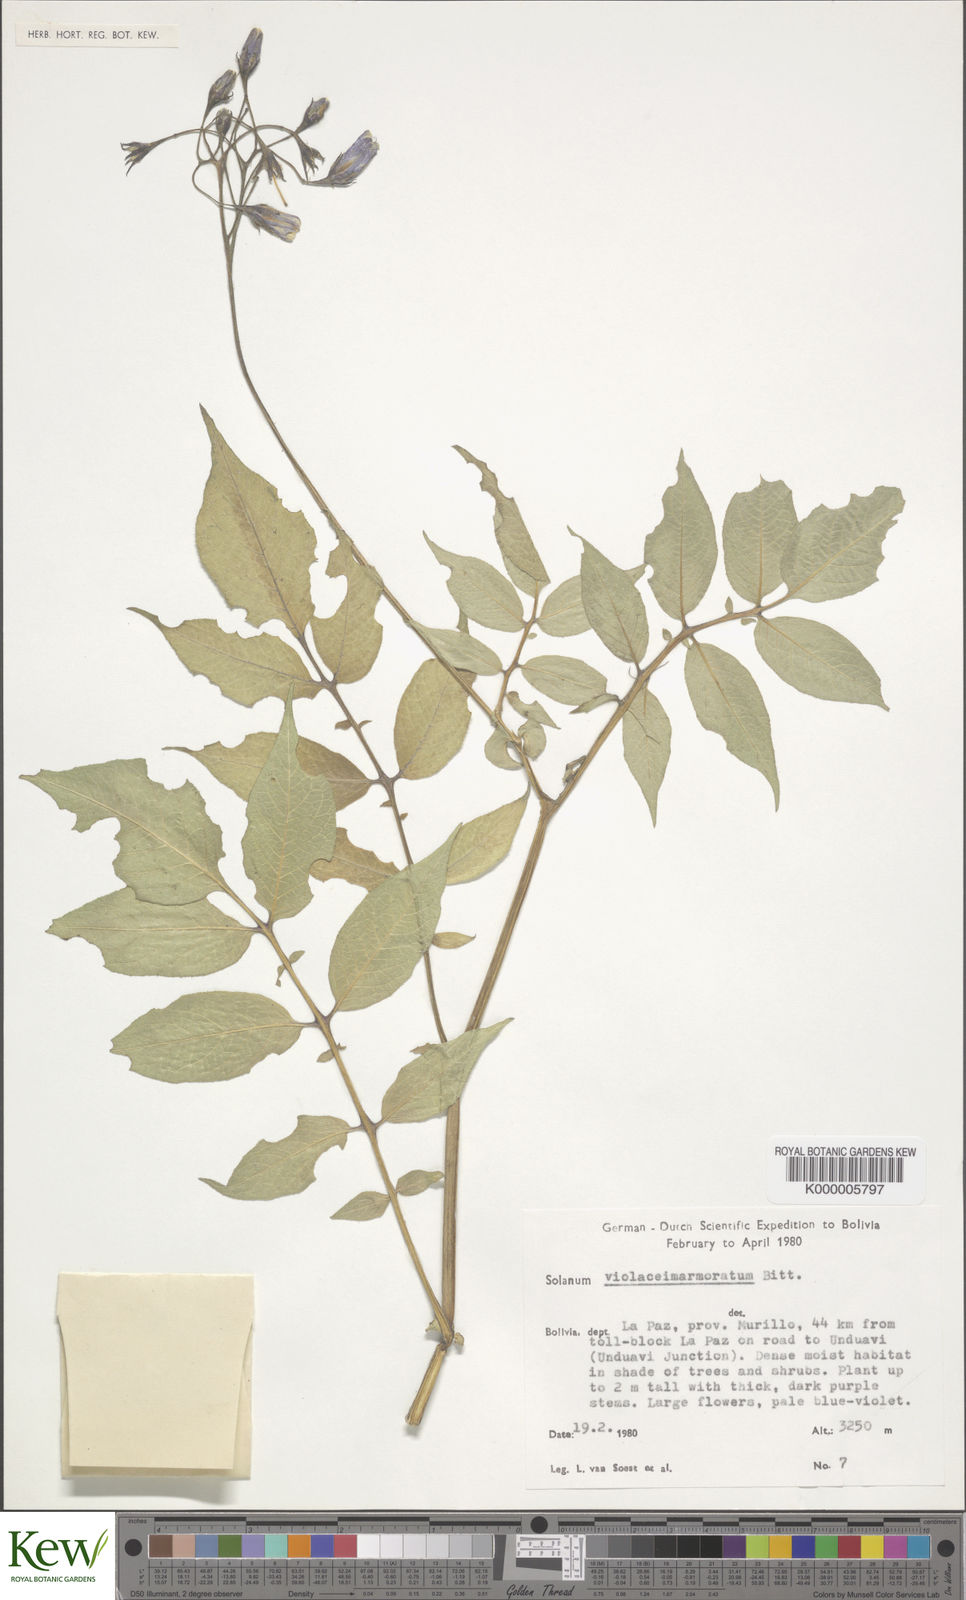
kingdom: Plantae
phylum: Tracheophyta
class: Magnoliopsida
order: Solanales
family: Solanaceae
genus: Solanum
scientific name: Solanum violaceimarmoratum
